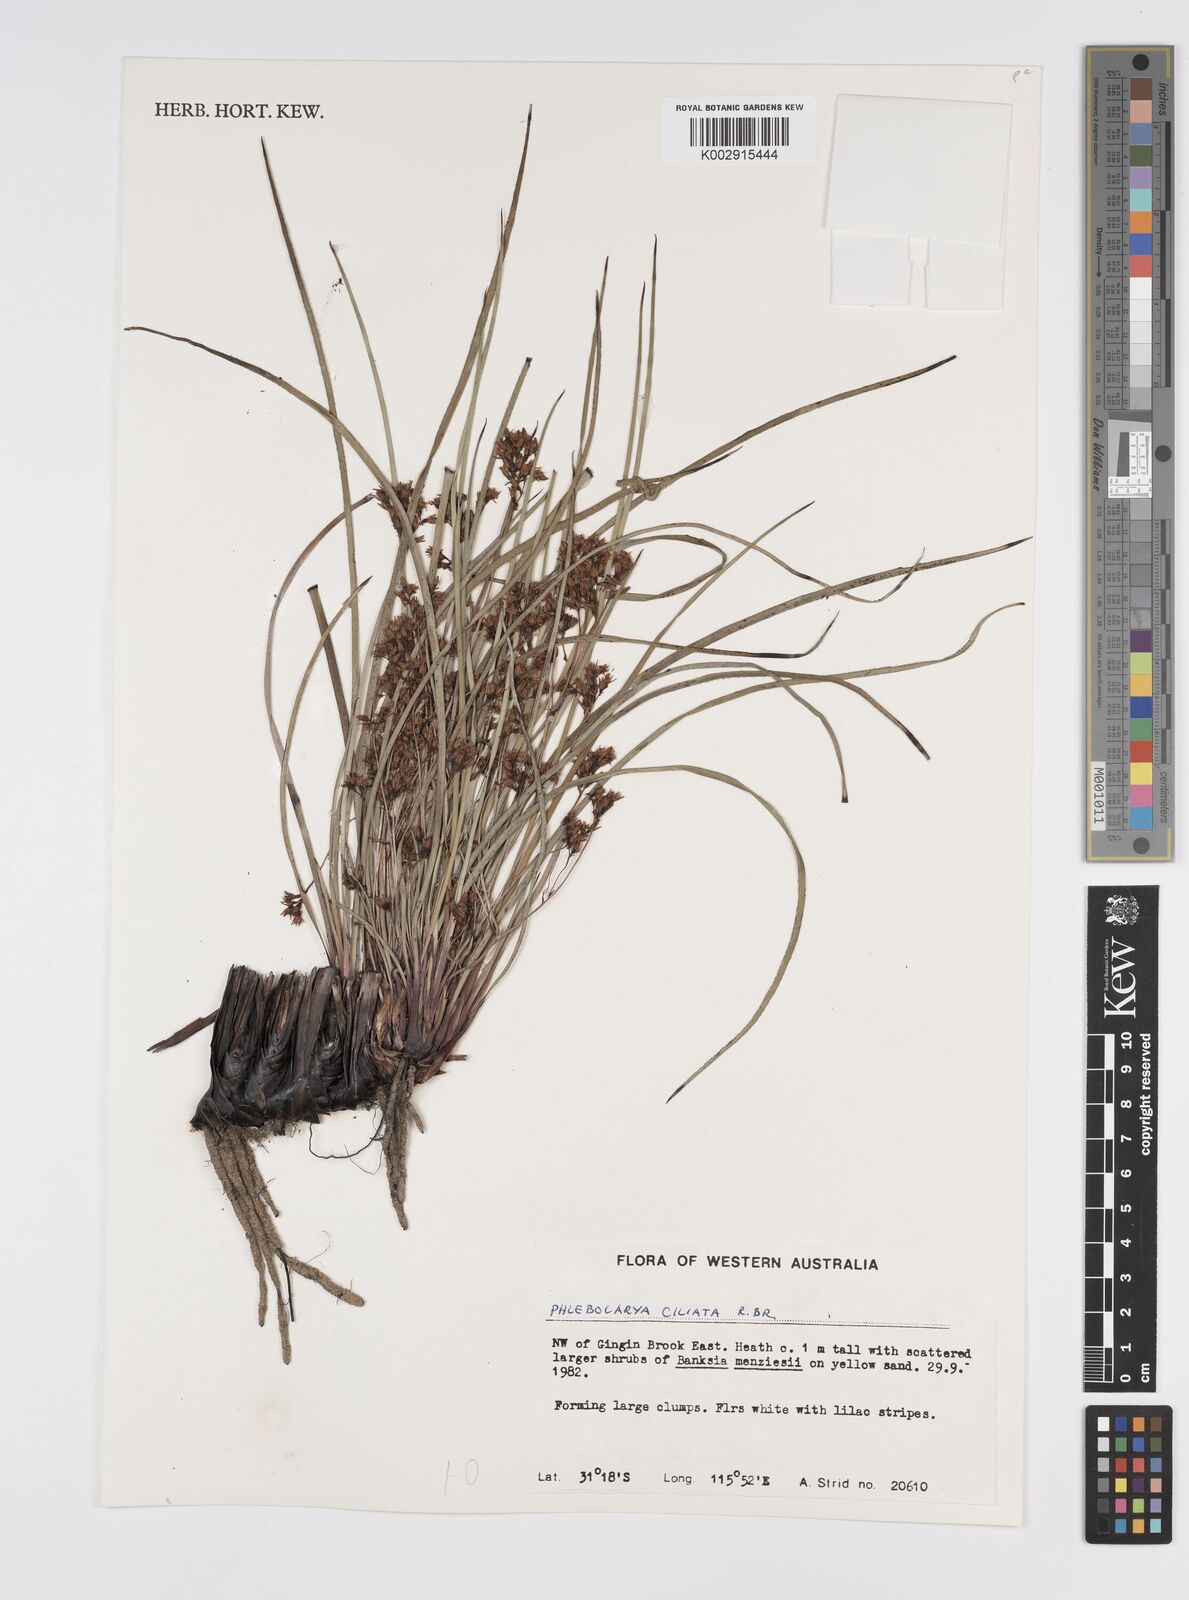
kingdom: Plantae
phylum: Tracheophyta
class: Liliopsida
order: Commelinales
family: Haemodoraceae
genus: Phlebocarya
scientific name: Phlebocarya ciliata
